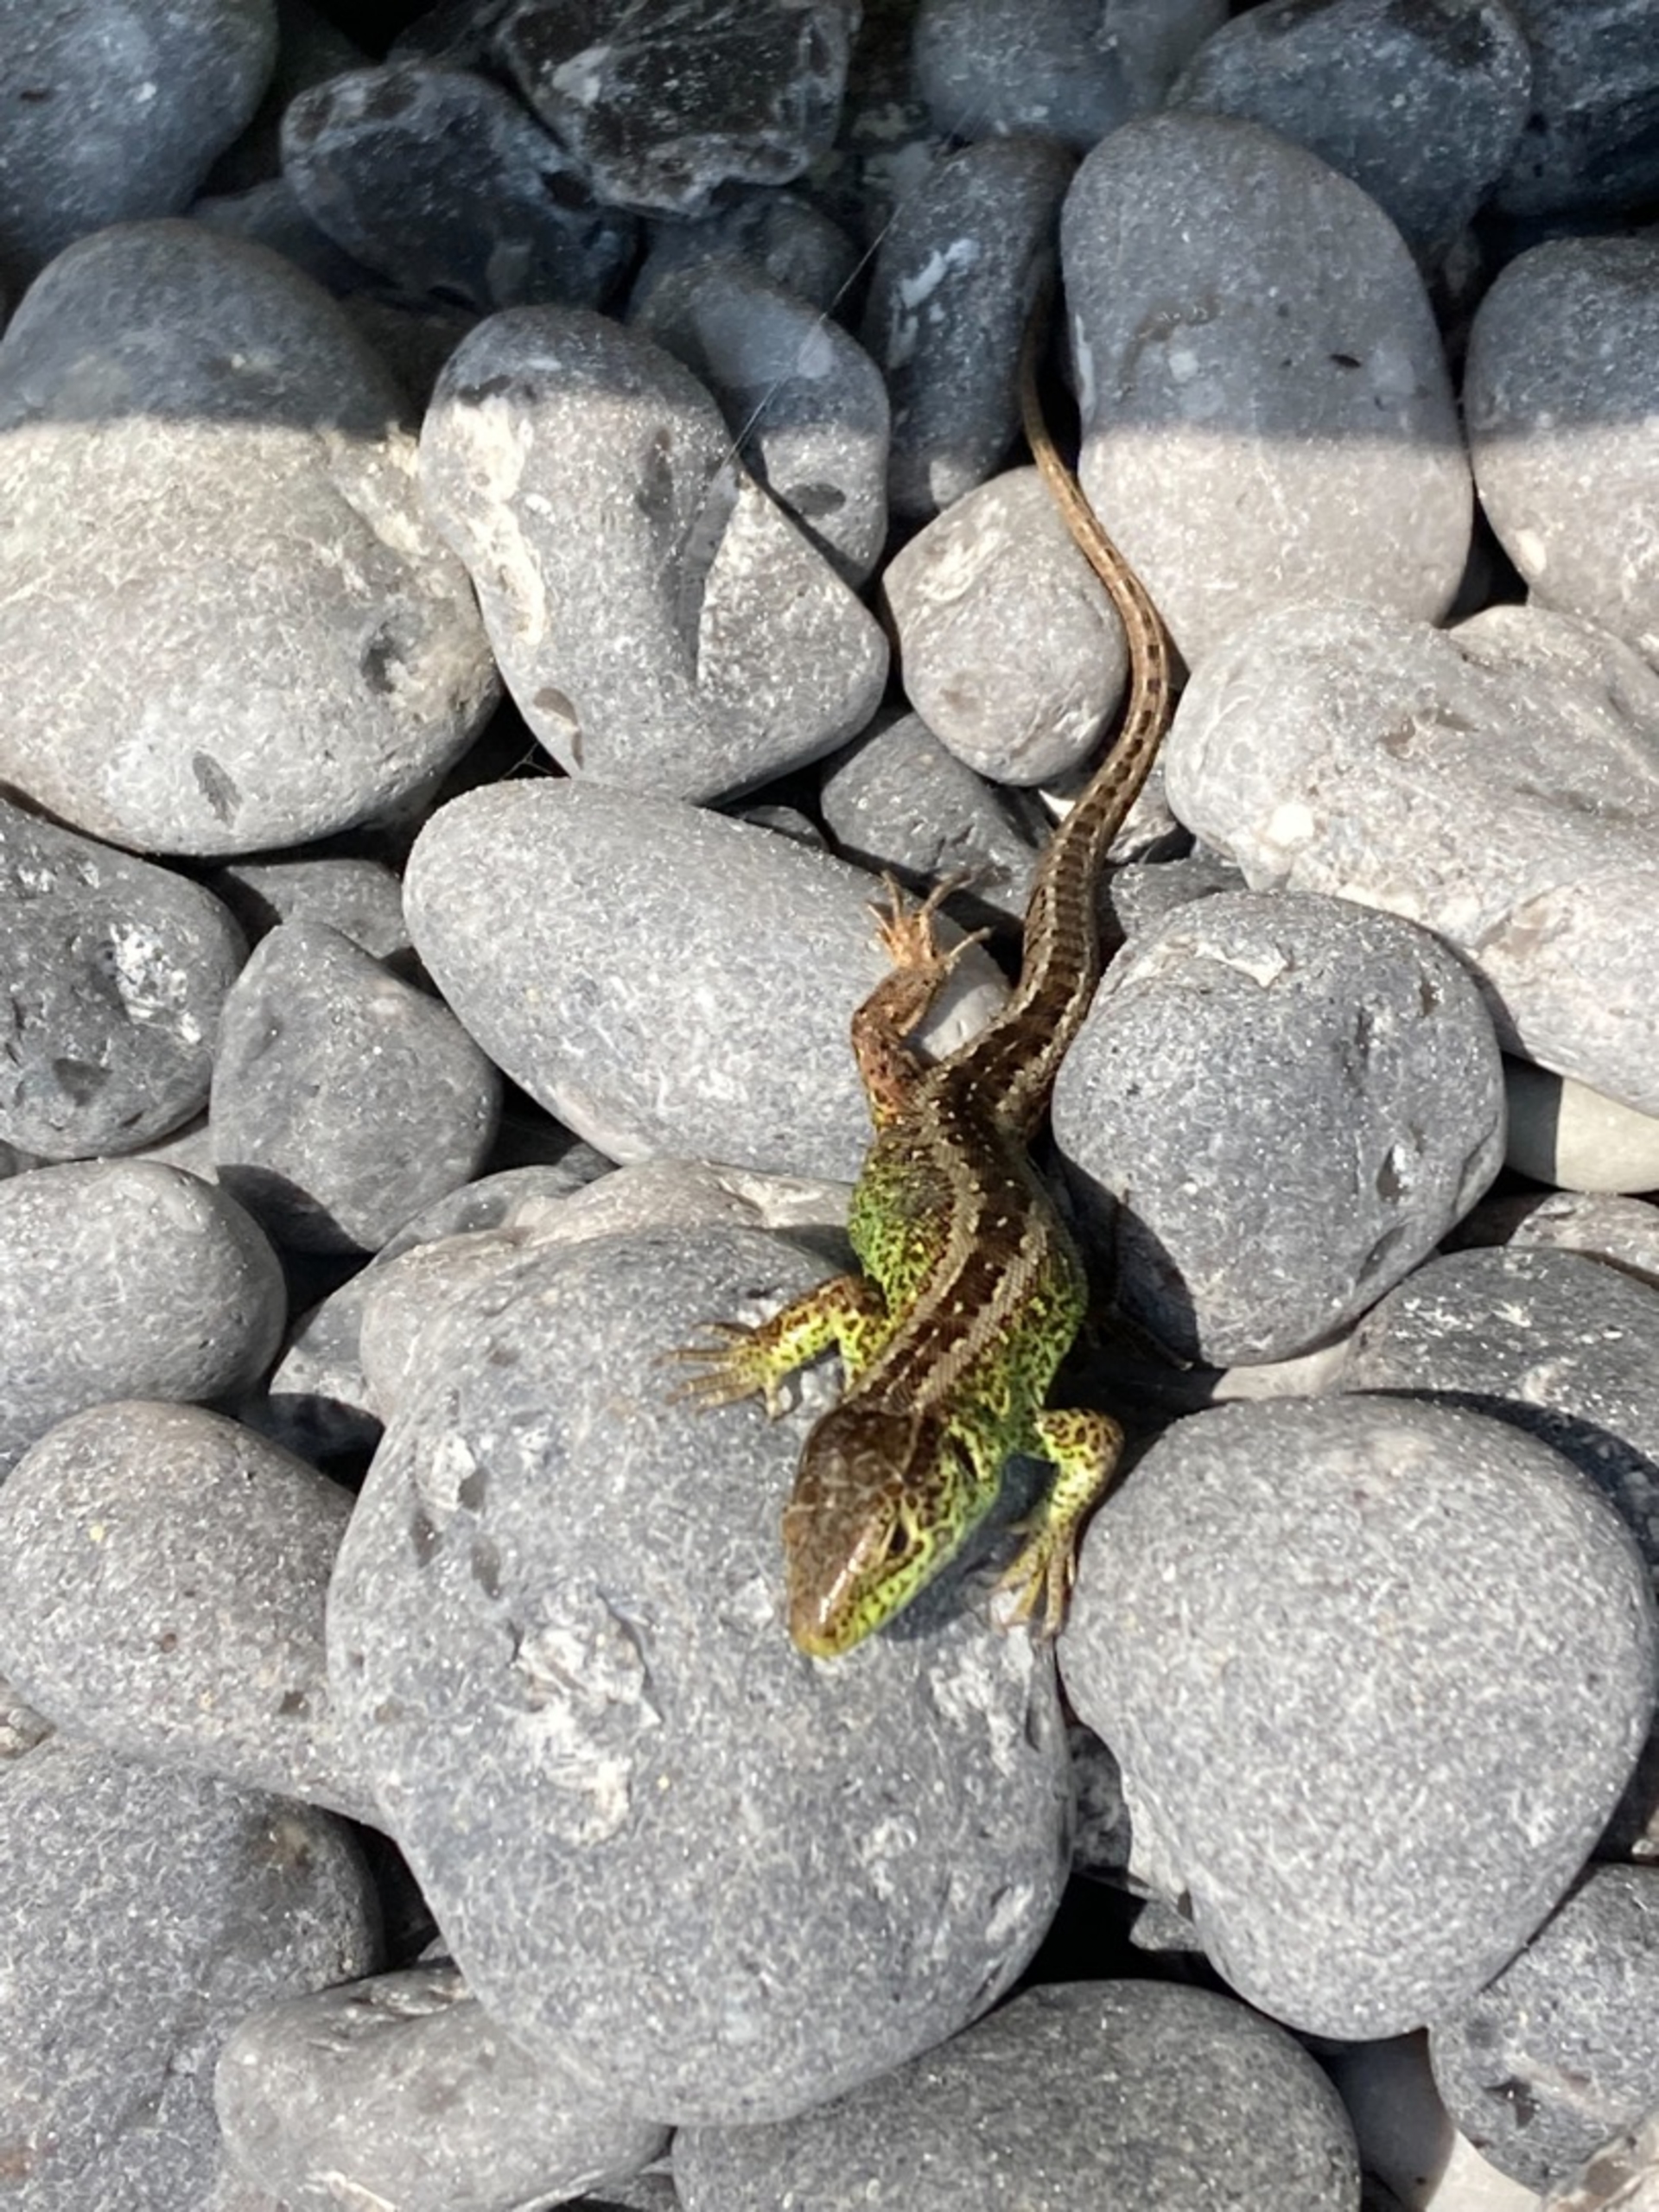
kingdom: Animalia
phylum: Chordata
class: Squamata
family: Lacertidae
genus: Lacerta
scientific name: Lacerta agilis
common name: Markfirben
